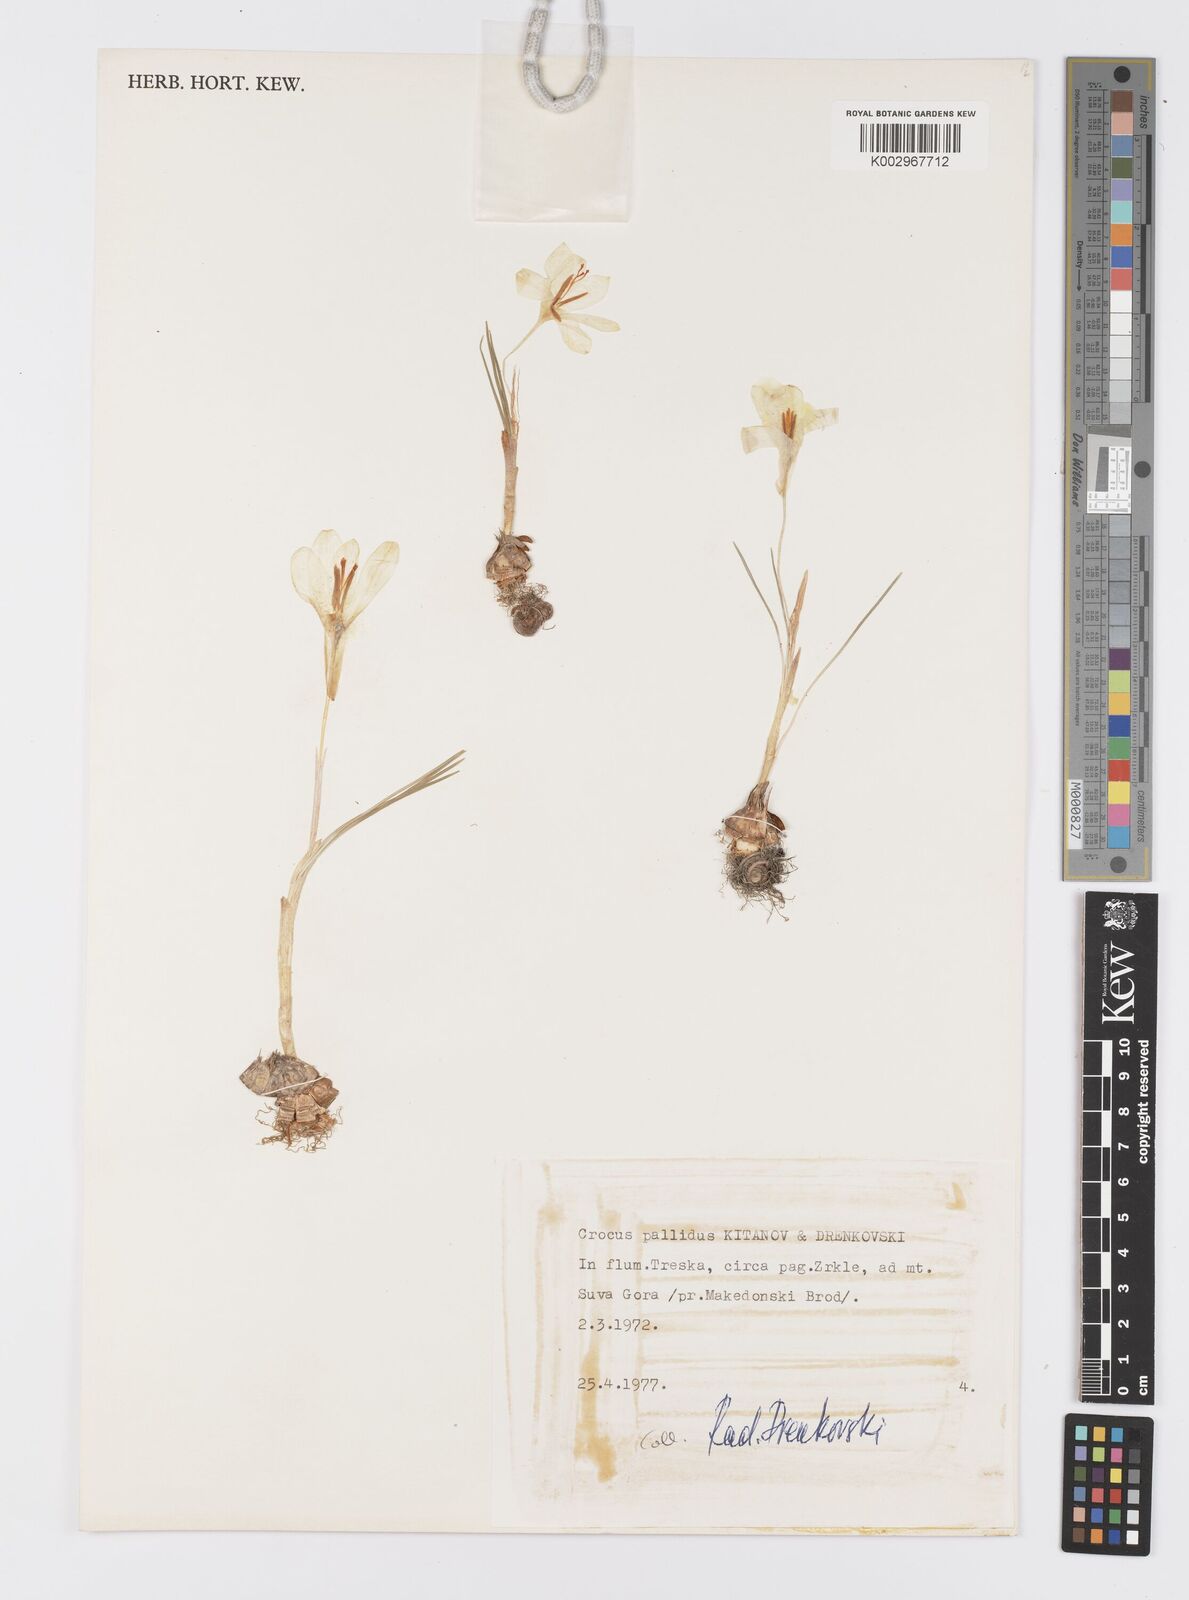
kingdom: Plantae
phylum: Tracheophyta
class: Liliopsida
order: Asparagales
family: Iridaceae
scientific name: Iridaceae
